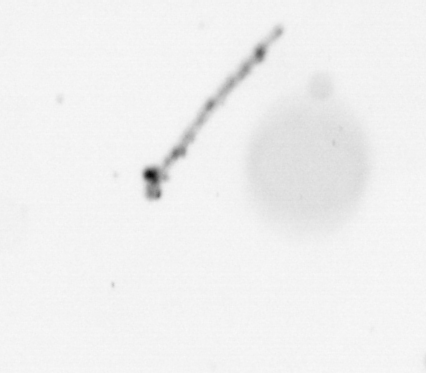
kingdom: Chromista
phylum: Ochrophyta
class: Bacillariophyceae
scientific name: Bacillariophyceae
